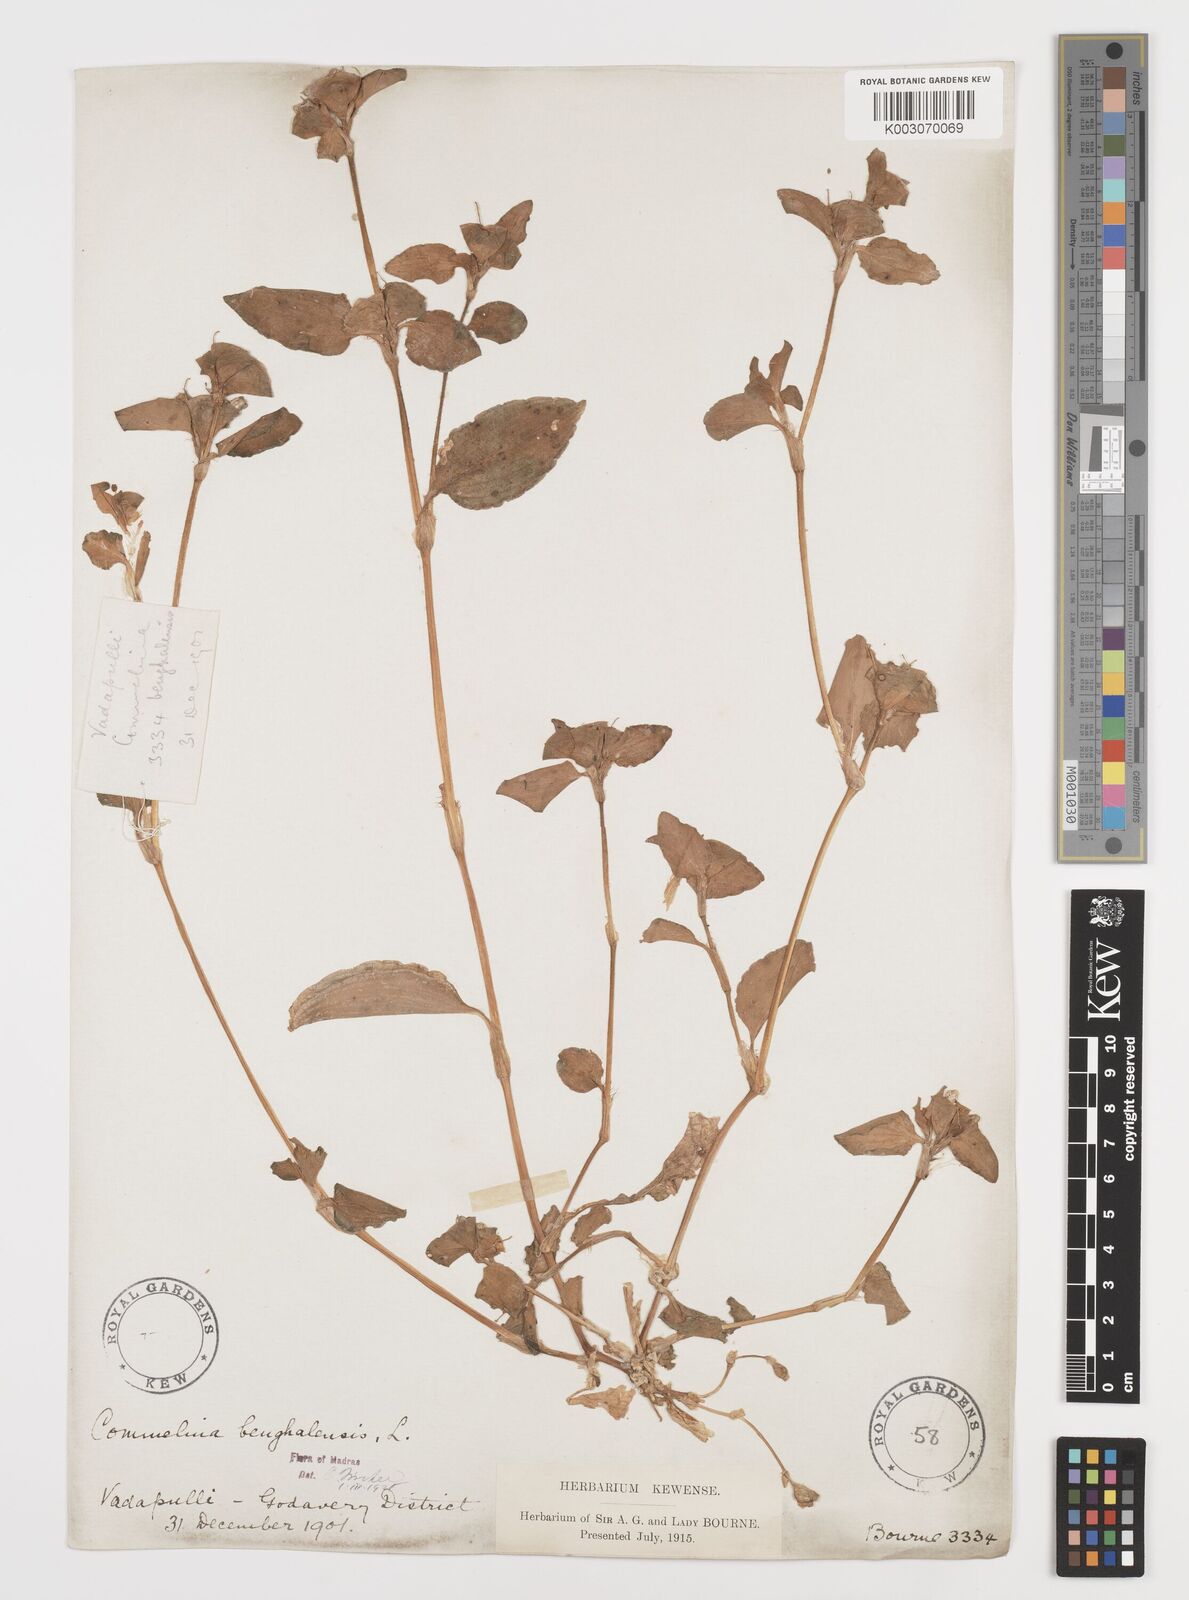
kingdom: Plantae
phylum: Tracheophyta
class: Liliopsida
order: Commelinales
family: Commelinaceae
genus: Commelina
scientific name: Commelina benghalensis
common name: Jio
